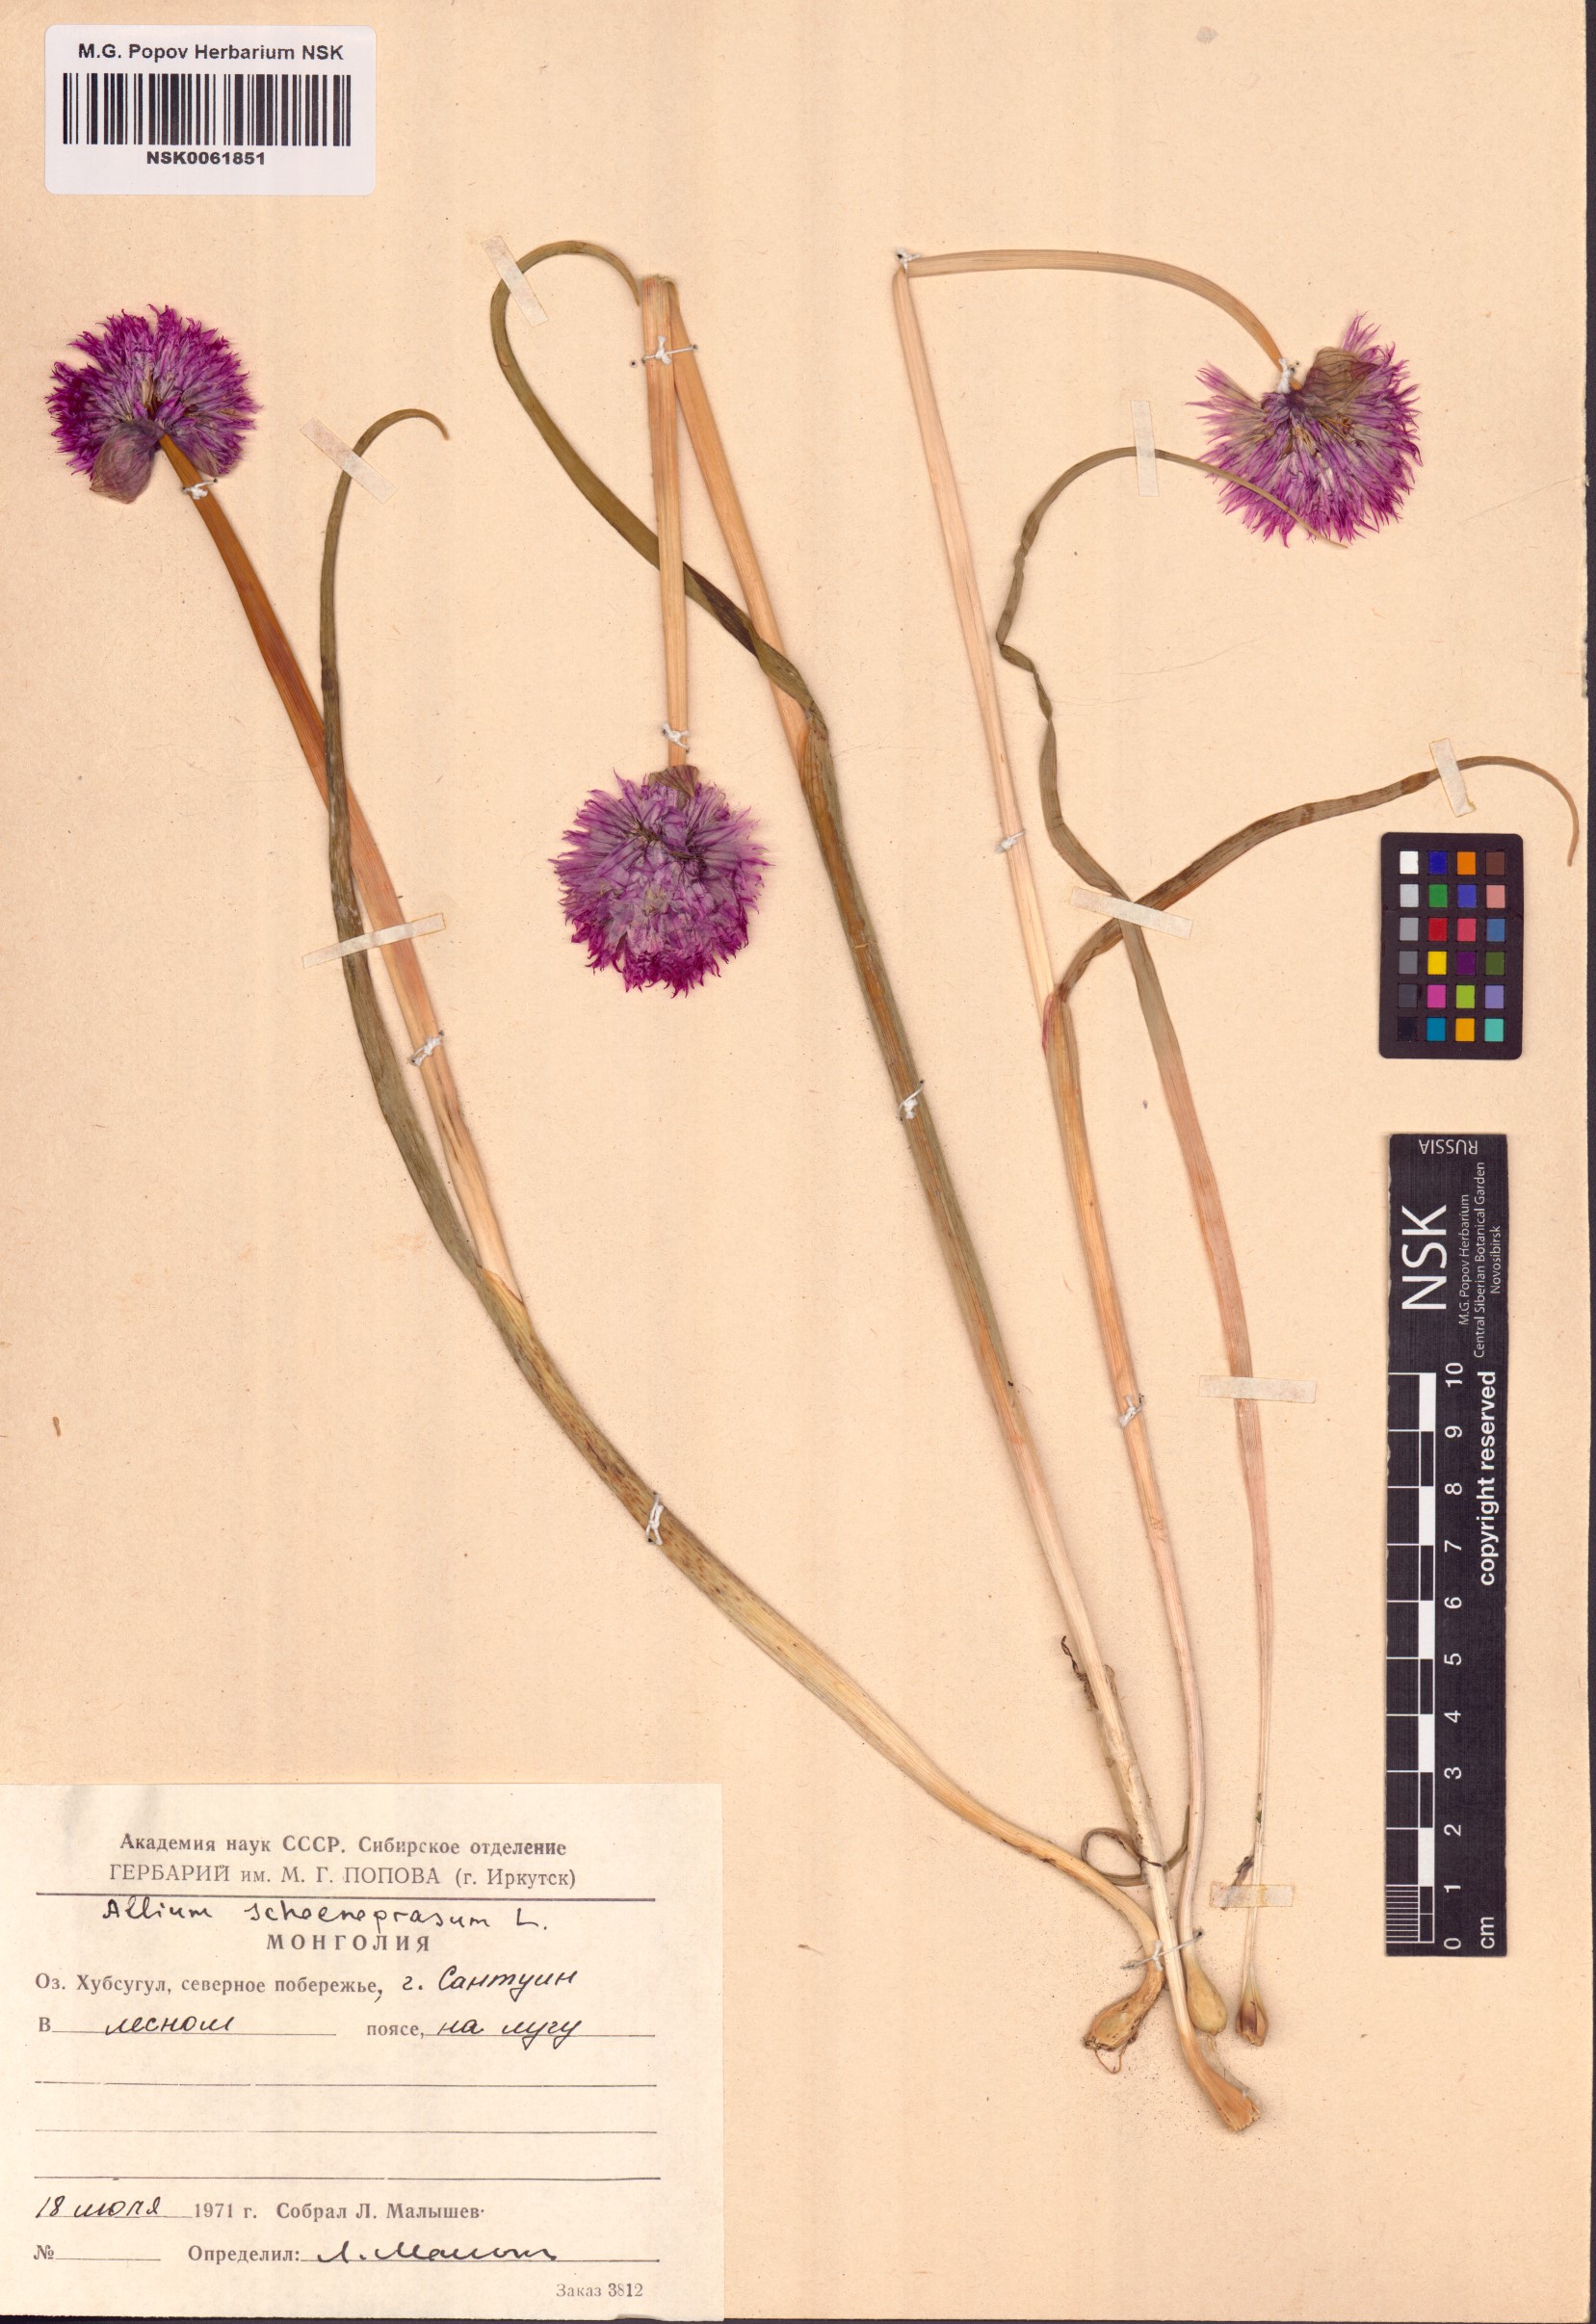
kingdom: Plantae
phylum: Tracheophyta
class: Liliopsida
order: Asparagales
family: Amaryllidaceae
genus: Allium
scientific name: Allium schoenoprasum
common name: Chives
